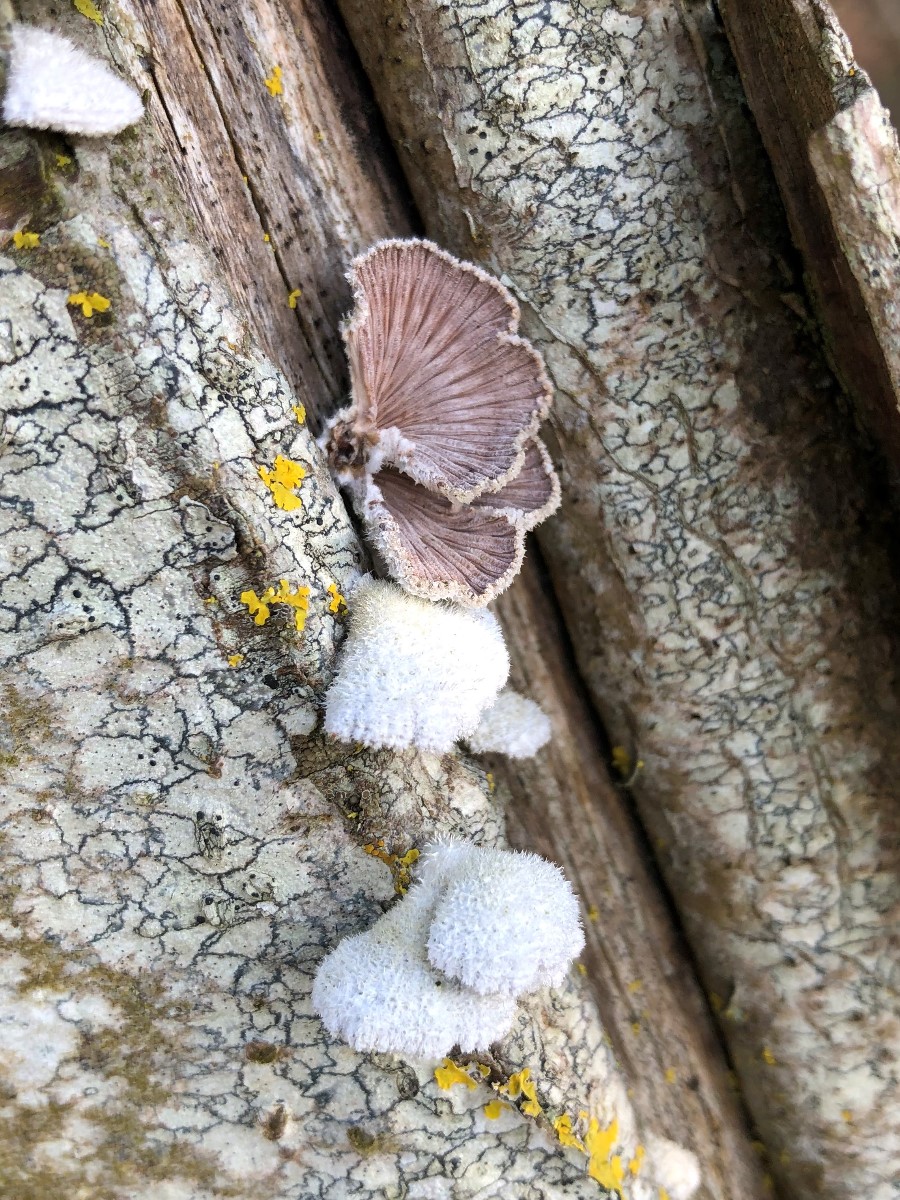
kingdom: Fungi
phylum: Basidiomycota
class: Agaricomycetes
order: Agaricales
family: Schizophyllaceae
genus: Schizophyllum
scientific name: Schizophyllum commune
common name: kløvblad
